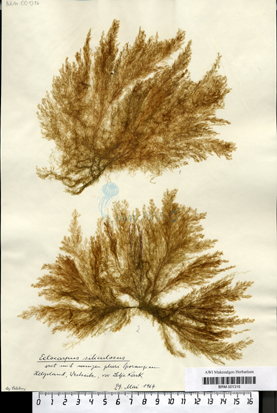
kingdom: Chromista
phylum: Ochrophyta
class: Phaeophyceae
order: Ectocarpales
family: Ectocarpaceae
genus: Ectocarpus
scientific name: Ectocarpus siliculosus
